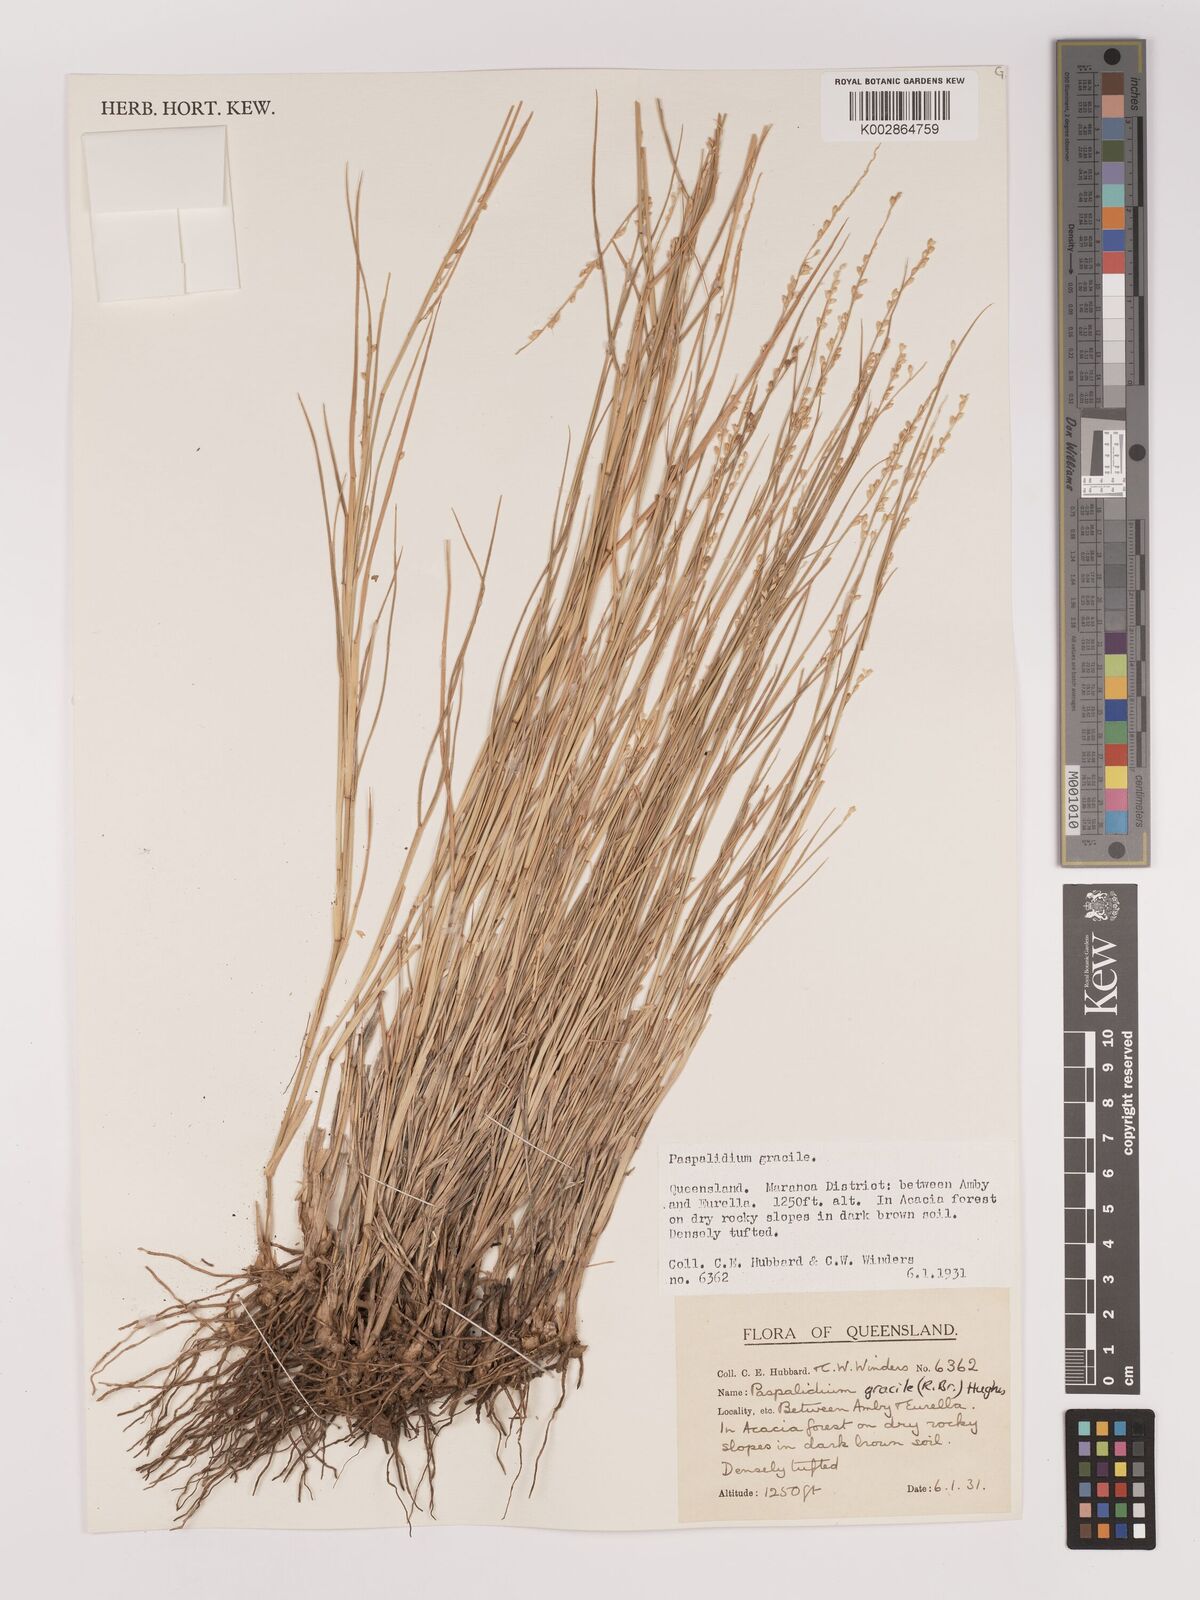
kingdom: Plantae
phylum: Tracheophyta
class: Liliopsida
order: Poales
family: Poaceae
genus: Setaria
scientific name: Setaria brownii
